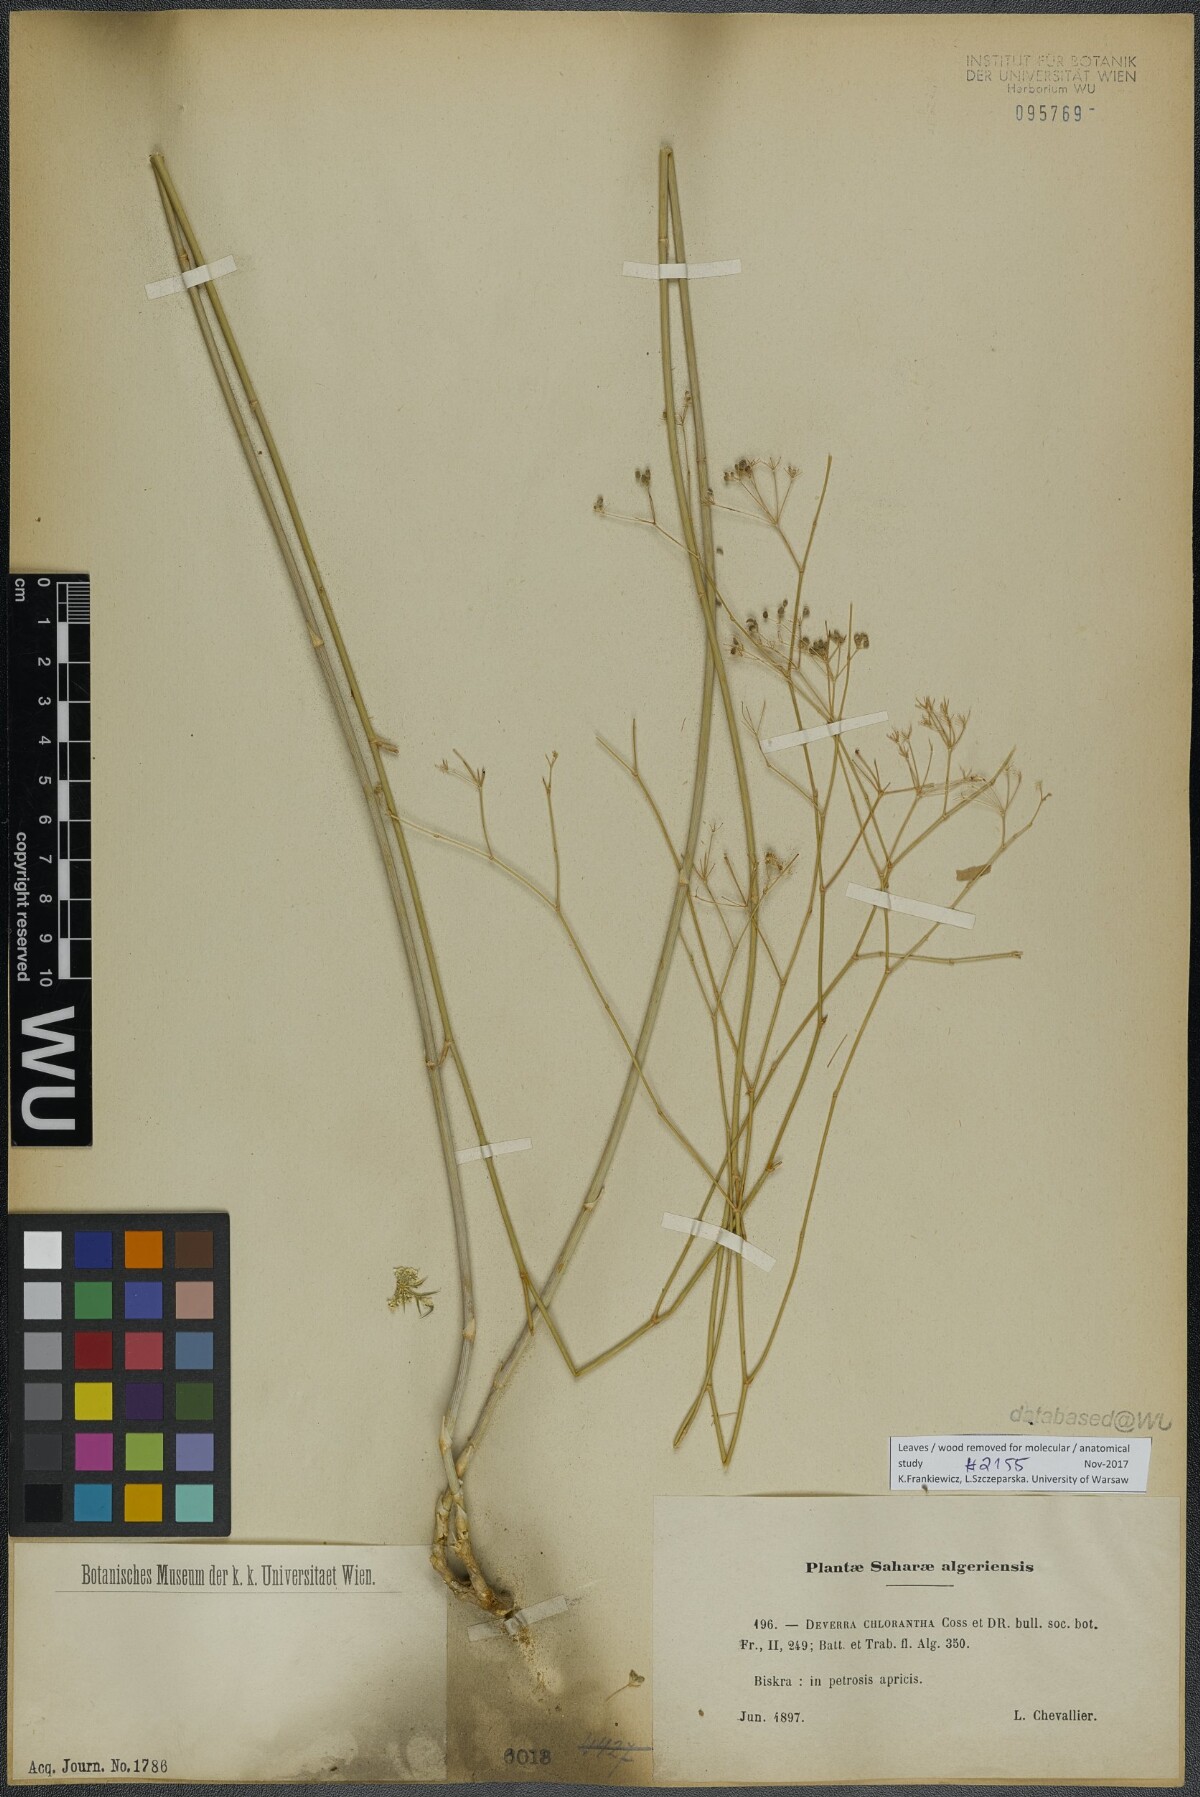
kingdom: Plantae
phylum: Tracheophyta
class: Magnoliopsida
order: Apiales
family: Apiaceae
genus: Deverra
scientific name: Deverra denudata
